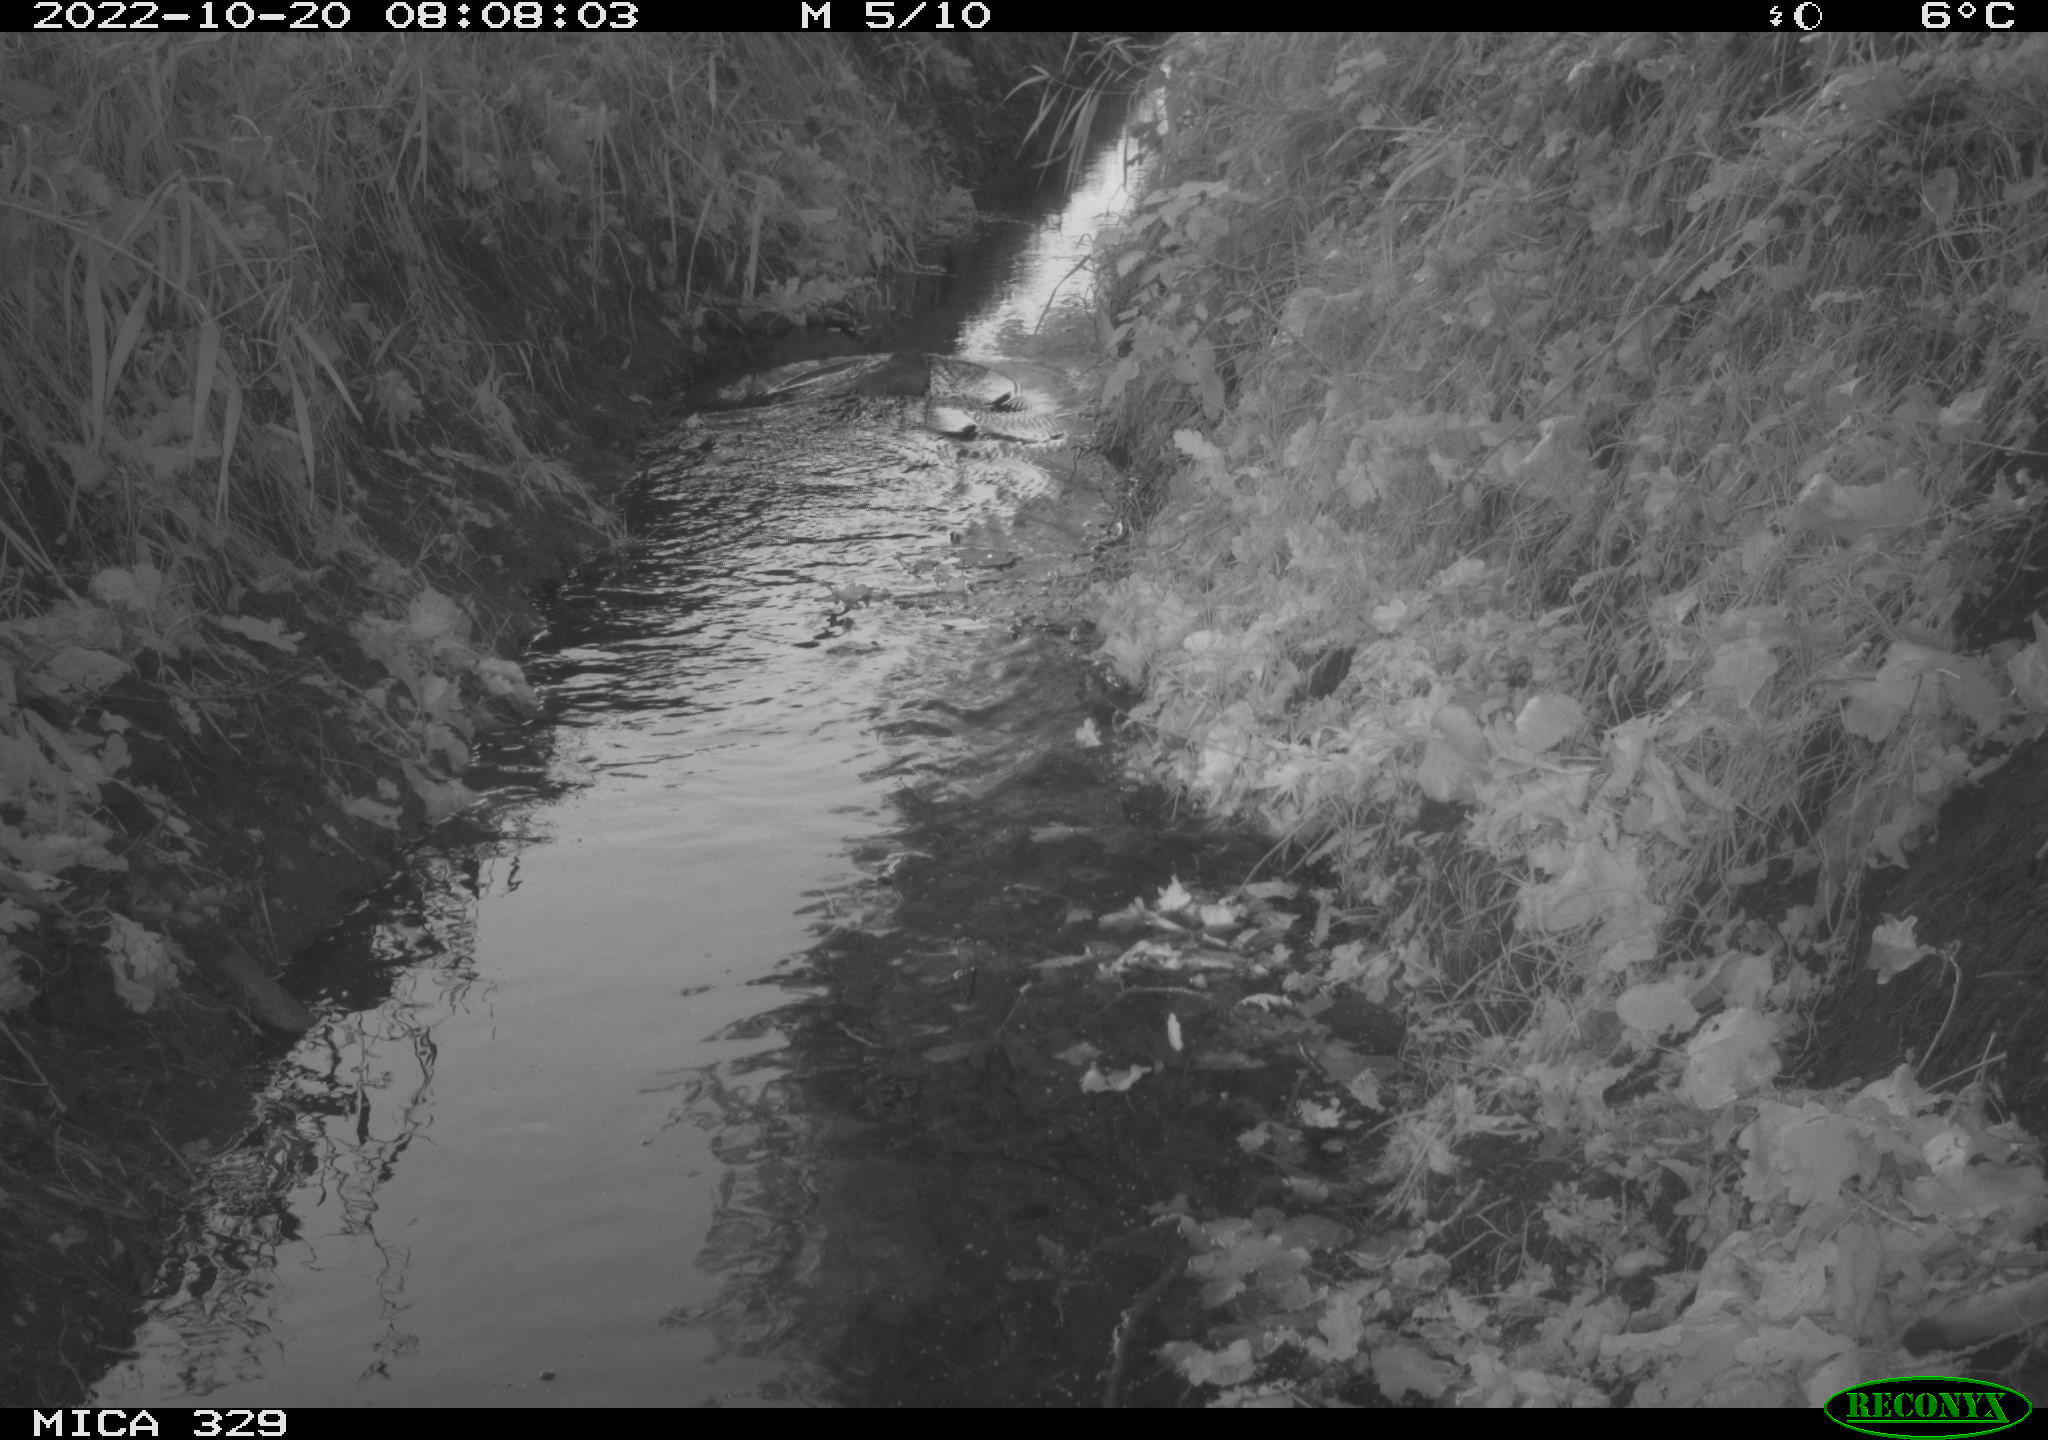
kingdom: Animalia
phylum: Chordata
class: Mammalia
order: Rodentia
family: Cricetidae
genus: Ondatra
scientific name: Ondatra zibethicus
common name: Muskrat
